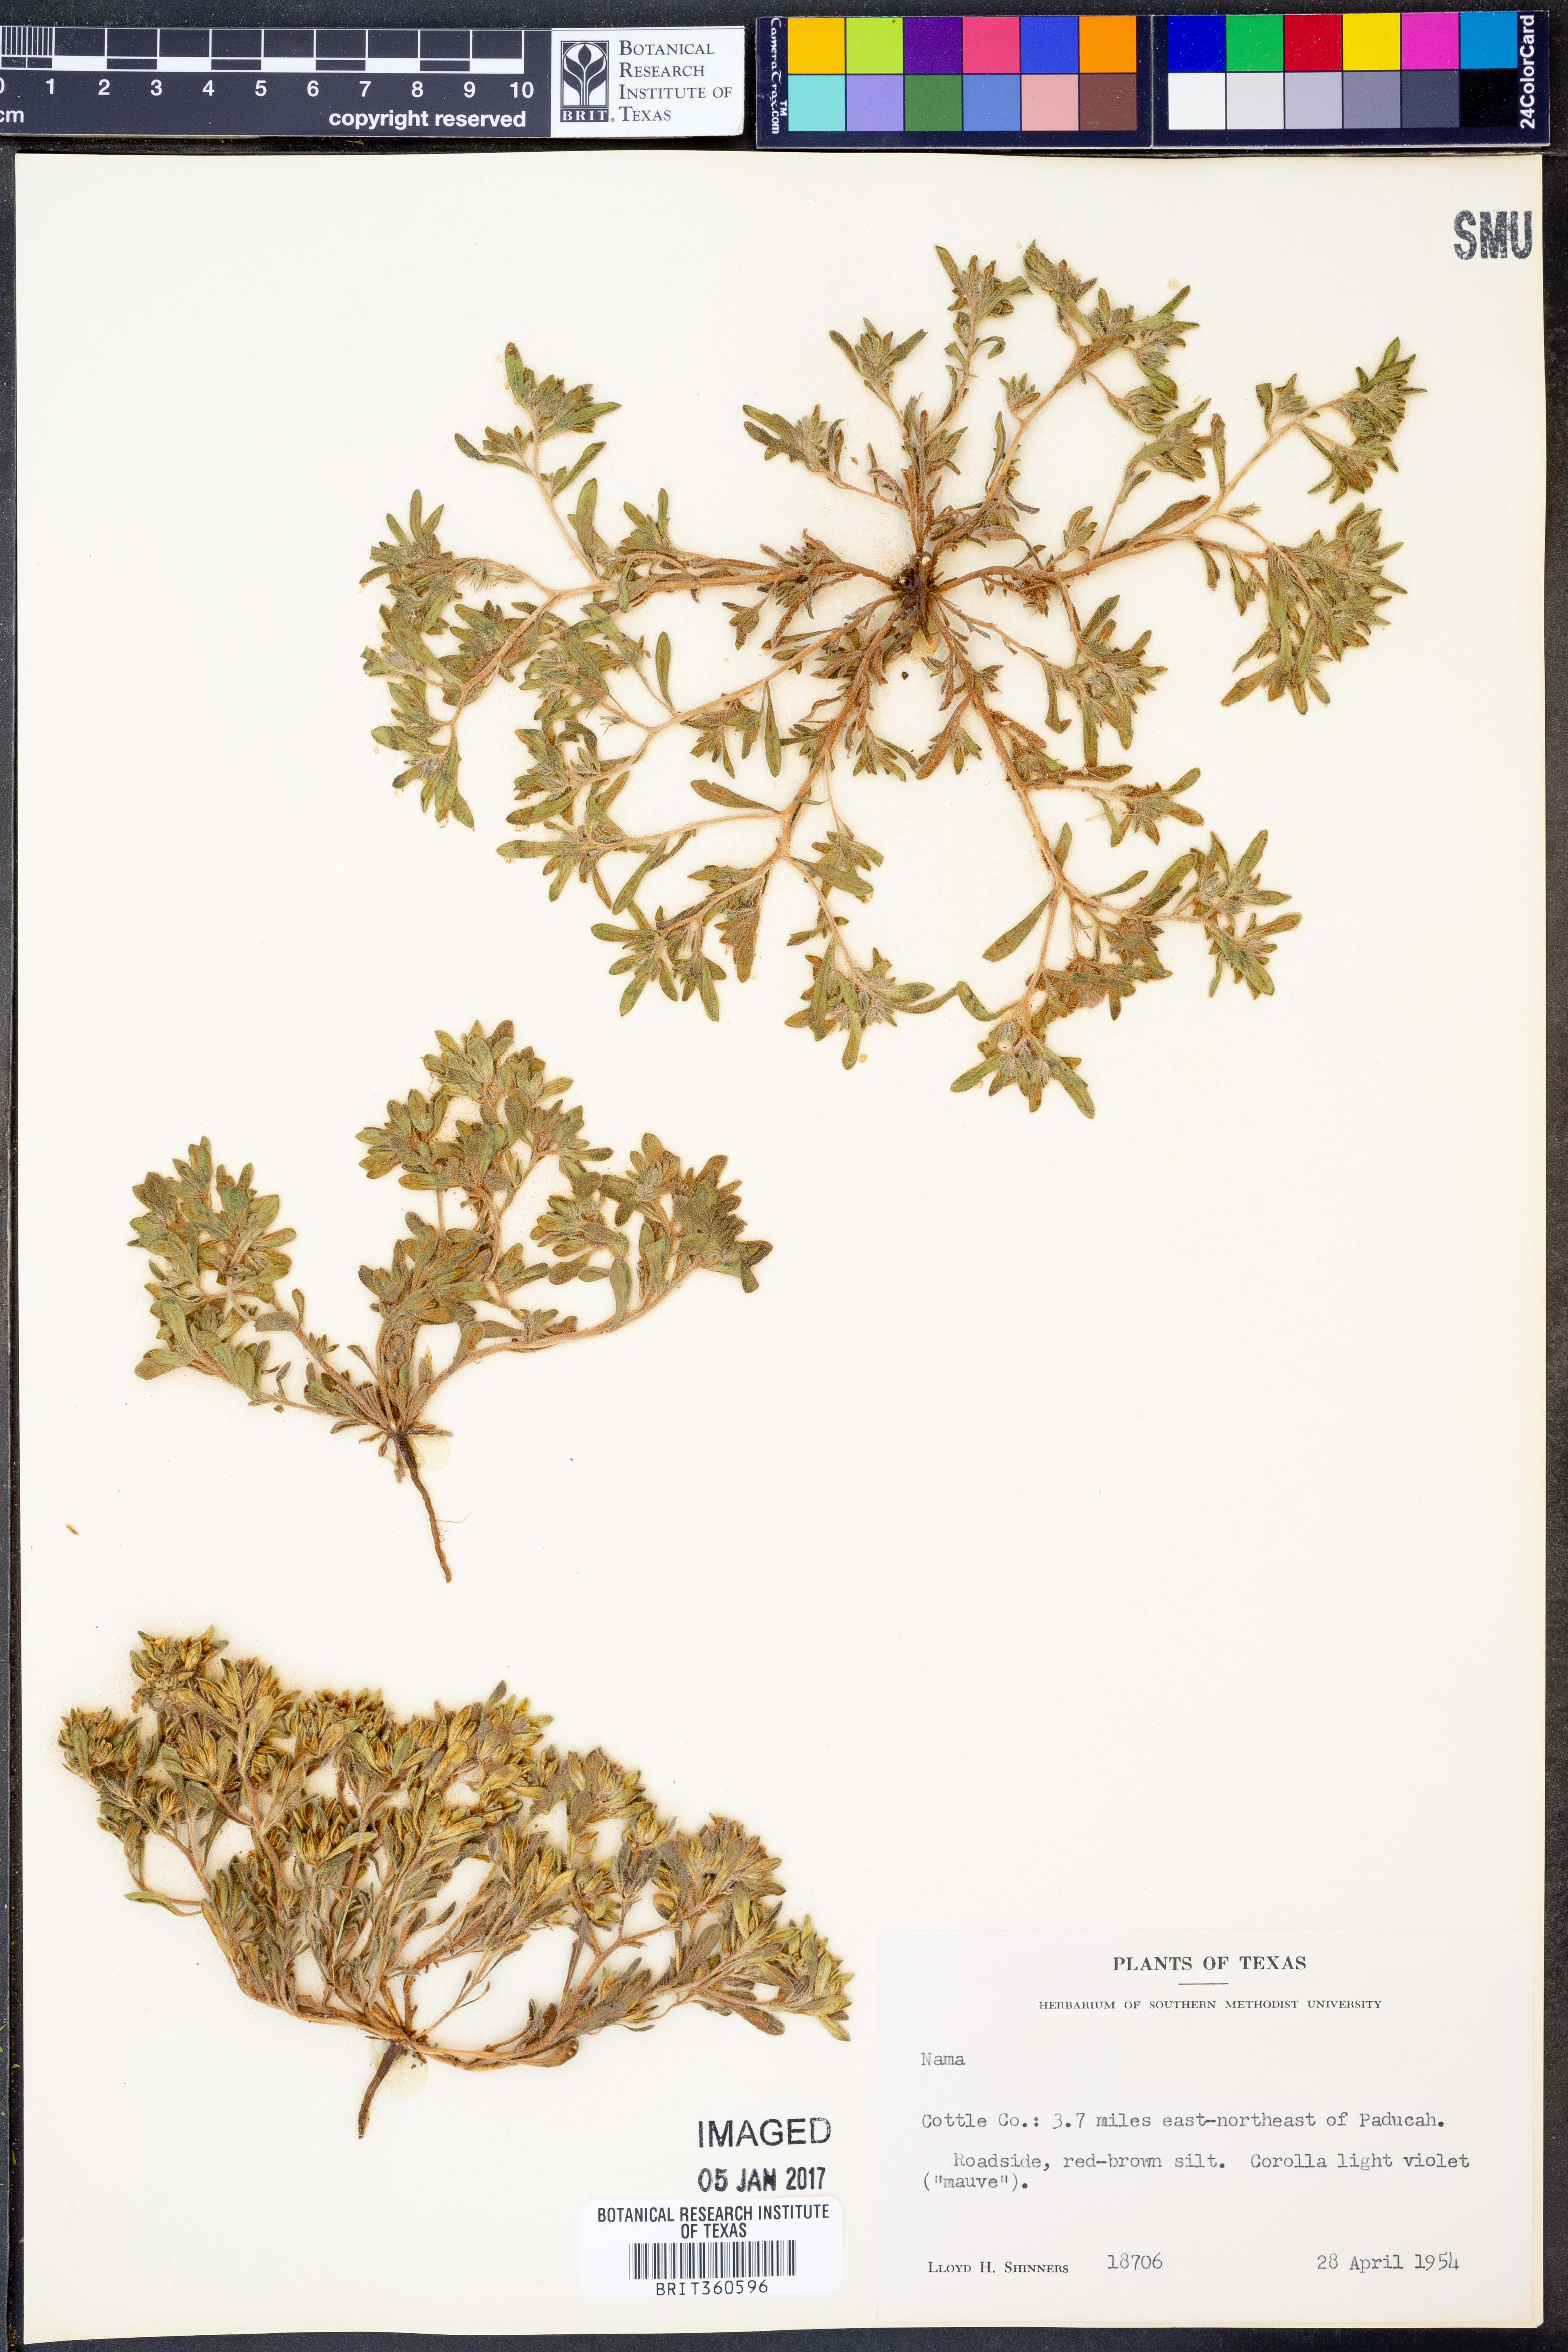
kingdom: Plantae
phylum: Tracheophyta
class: Magnoliopsida
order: Boraginales
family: Namaceae
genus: Nama
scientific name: Nama
